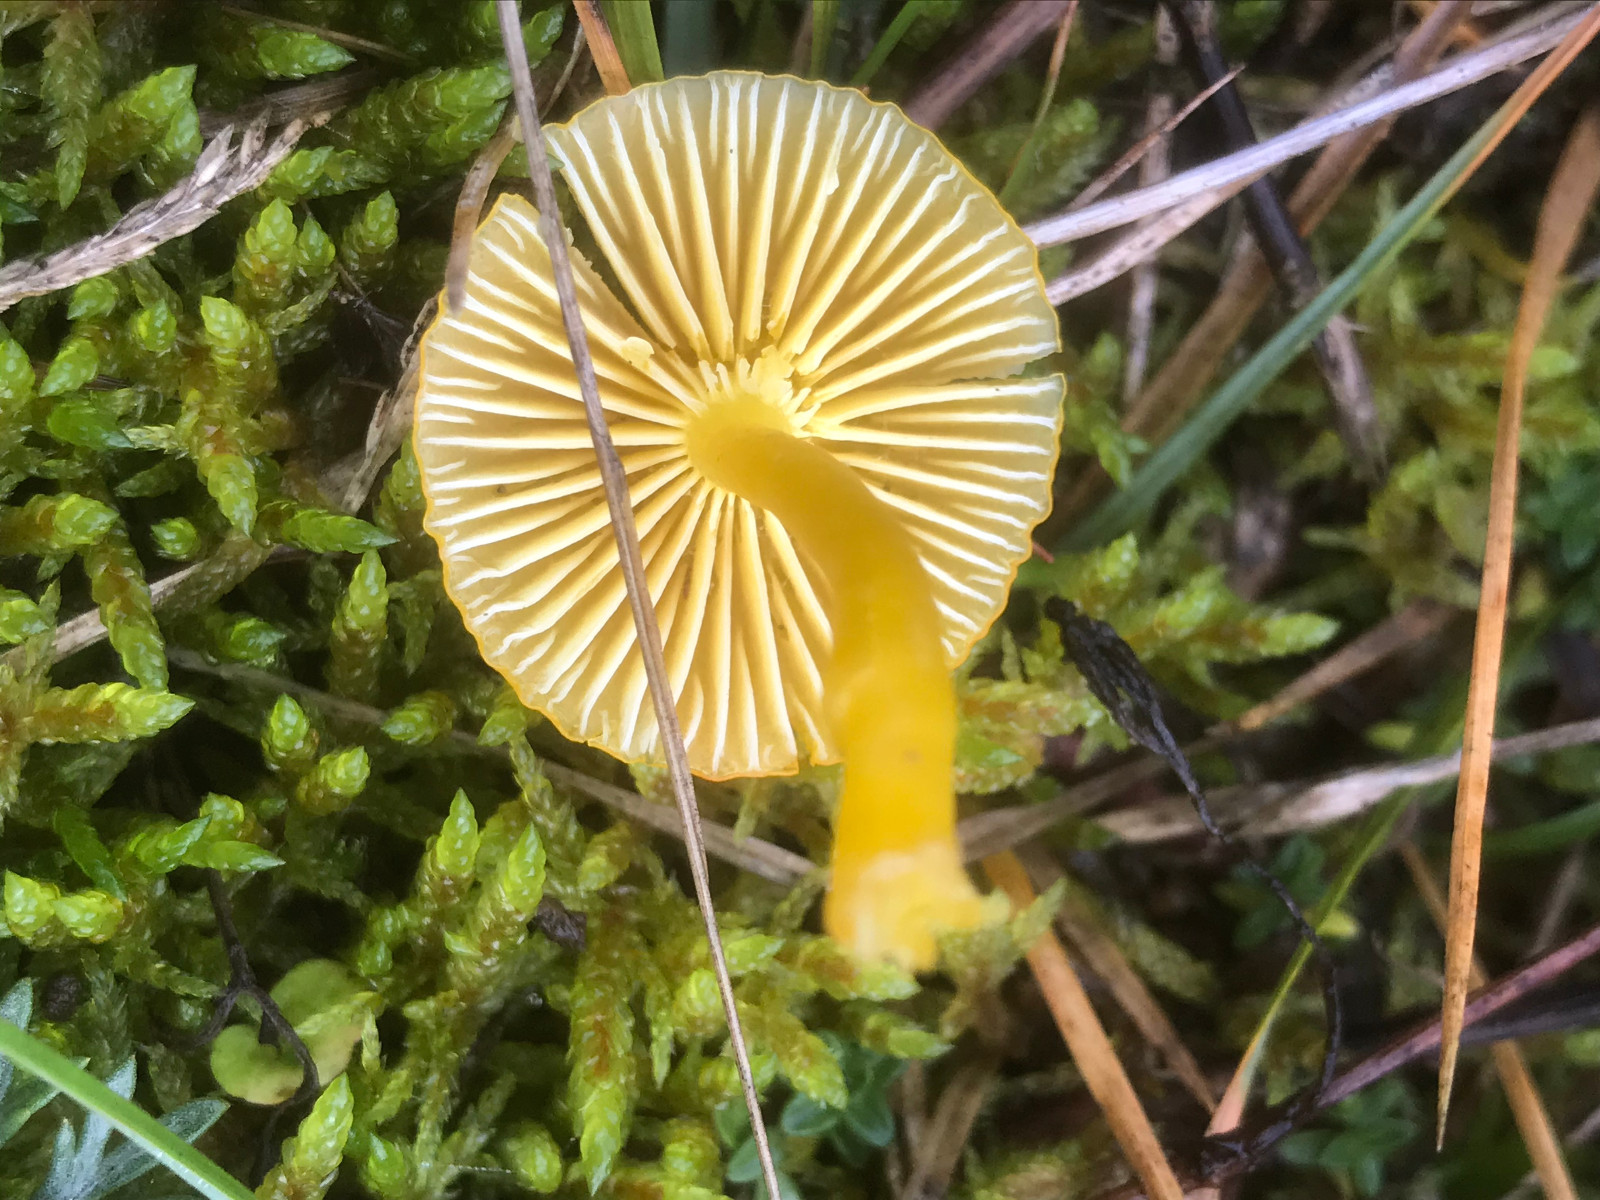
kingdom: Fungi
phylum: Basidiomycota
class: Agaricomycetes
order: Agaricales
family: Hygrophoraceae
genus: Hygrocybe
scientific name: Hygrocybe ceracea
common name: voksgul vokshat
